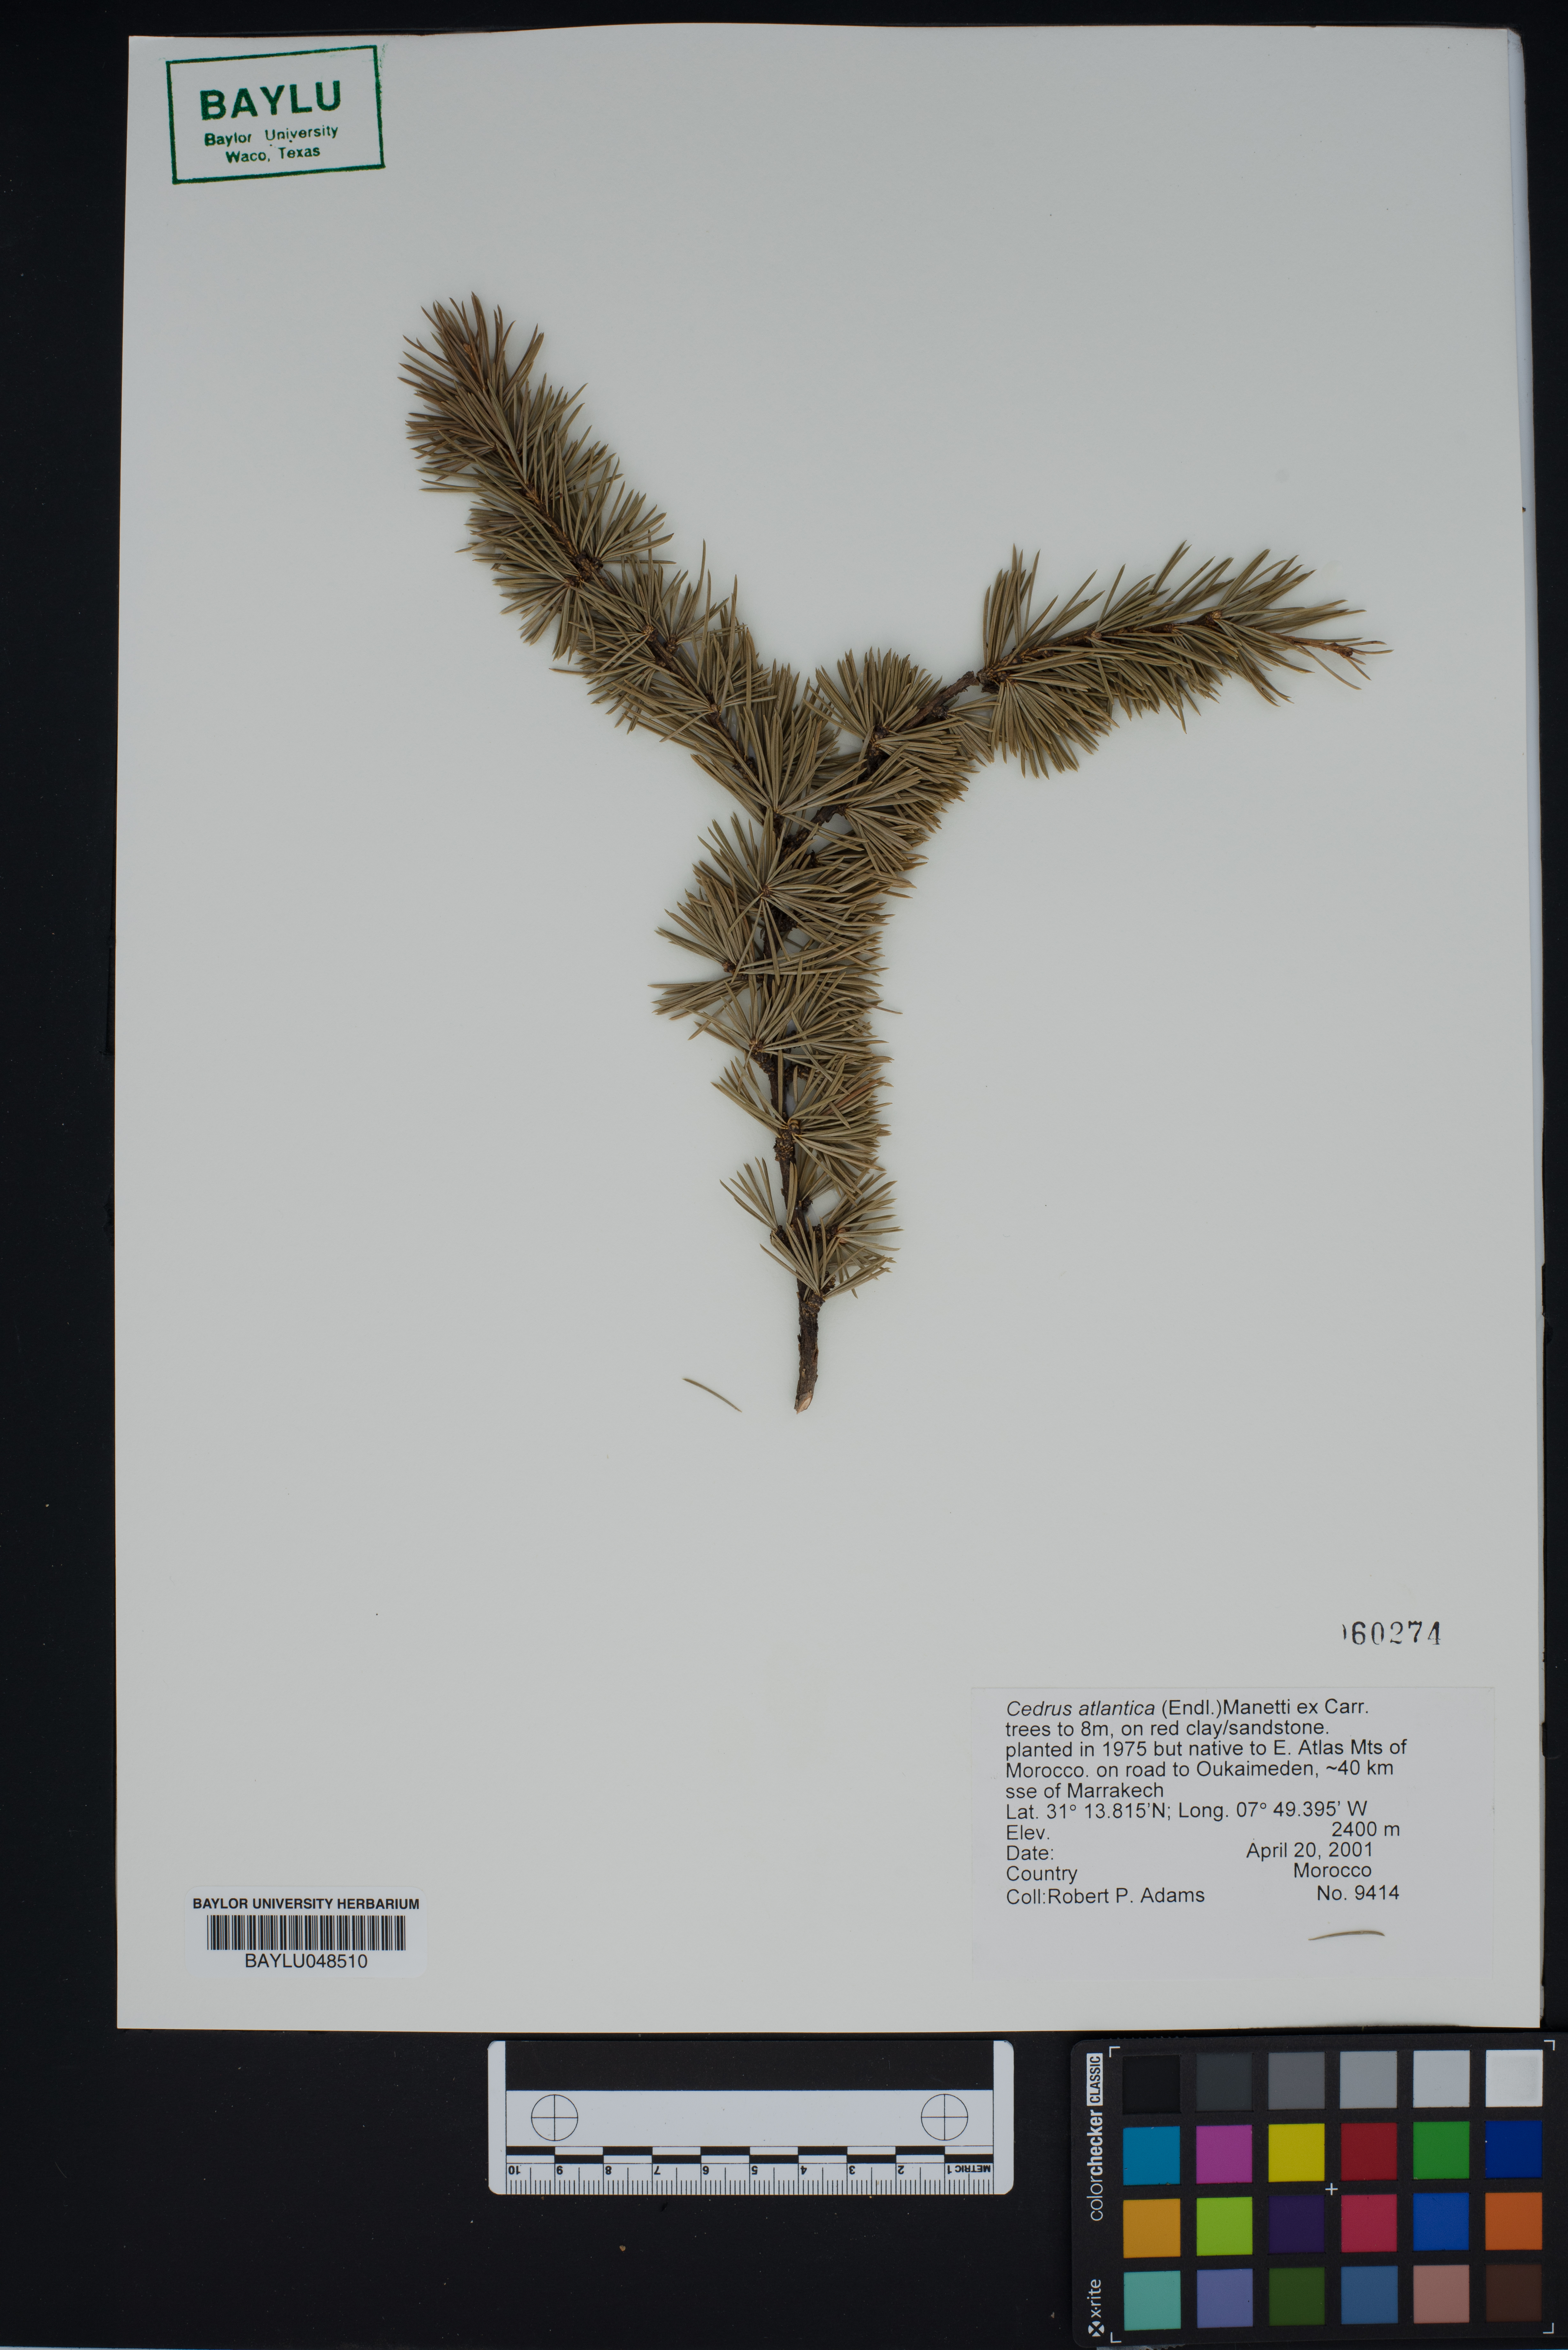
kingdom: Plantae
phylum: Tracheophyta
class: Pinopsida
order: Pinales
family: Pinaceae
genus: Cedrus
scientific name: Cedrus atlantica
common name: Atlas cedar
